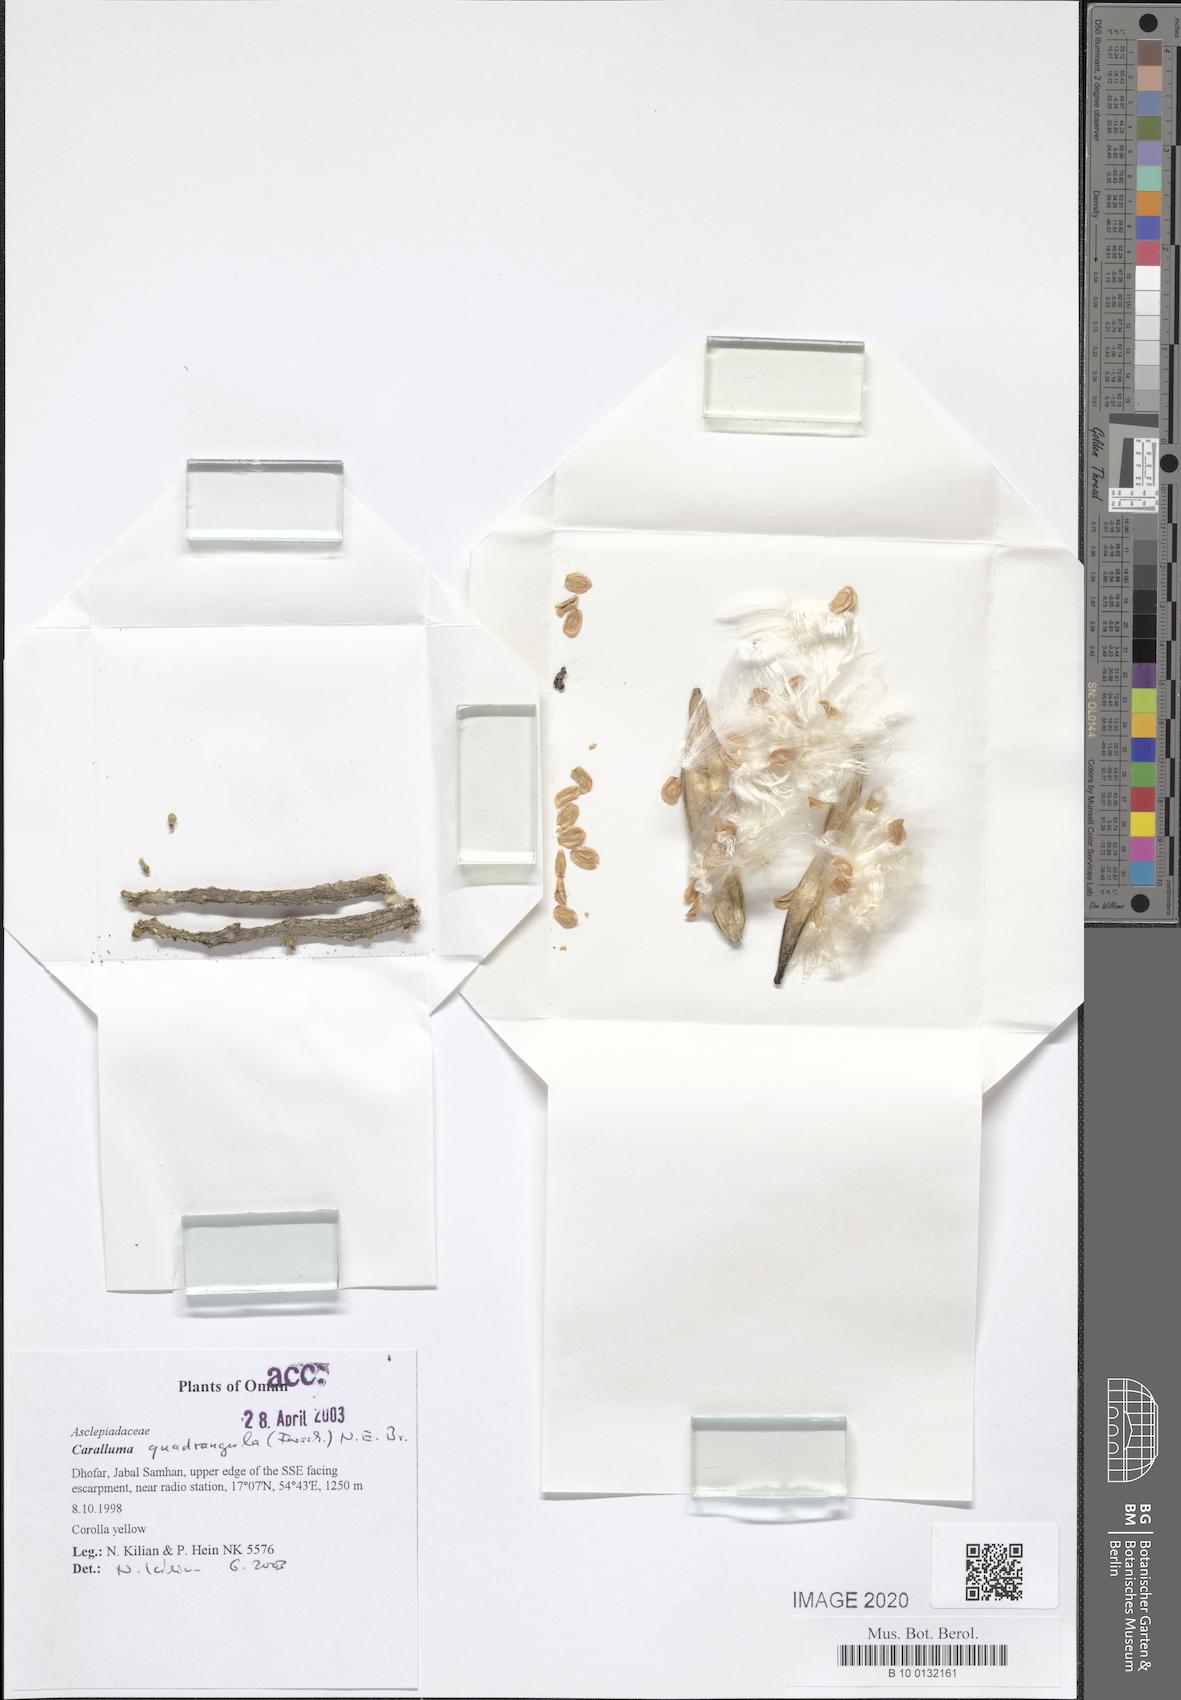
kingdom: Plantae
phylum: Tracheophyta
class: Magnoliopsida
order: Gentianales
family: Apocynaceae
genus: Ceropegia
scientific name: Ceropegia quadrangula
